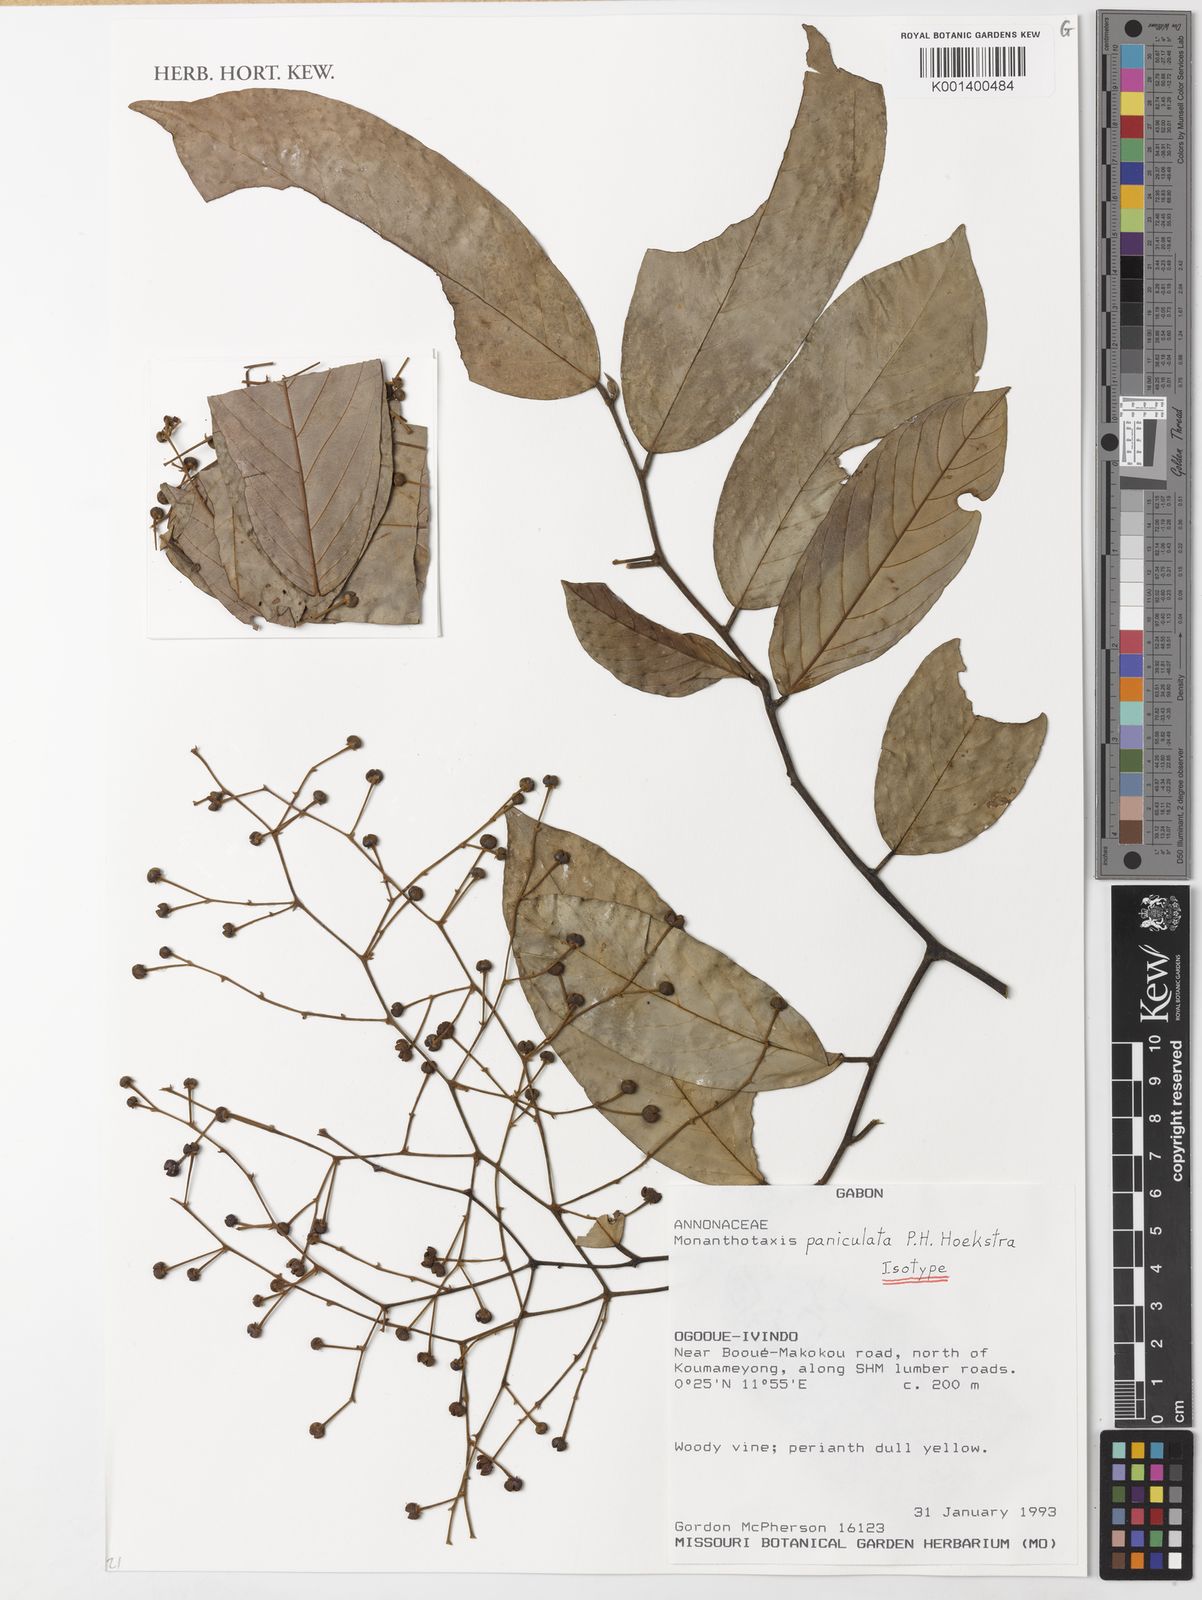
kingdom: Plantae
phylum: Tracheophyta
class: Magnoliopsida
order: Magnoliales
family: Annonaceae
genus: Monanthotaxis
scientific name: Monanthotaxis paniculata
